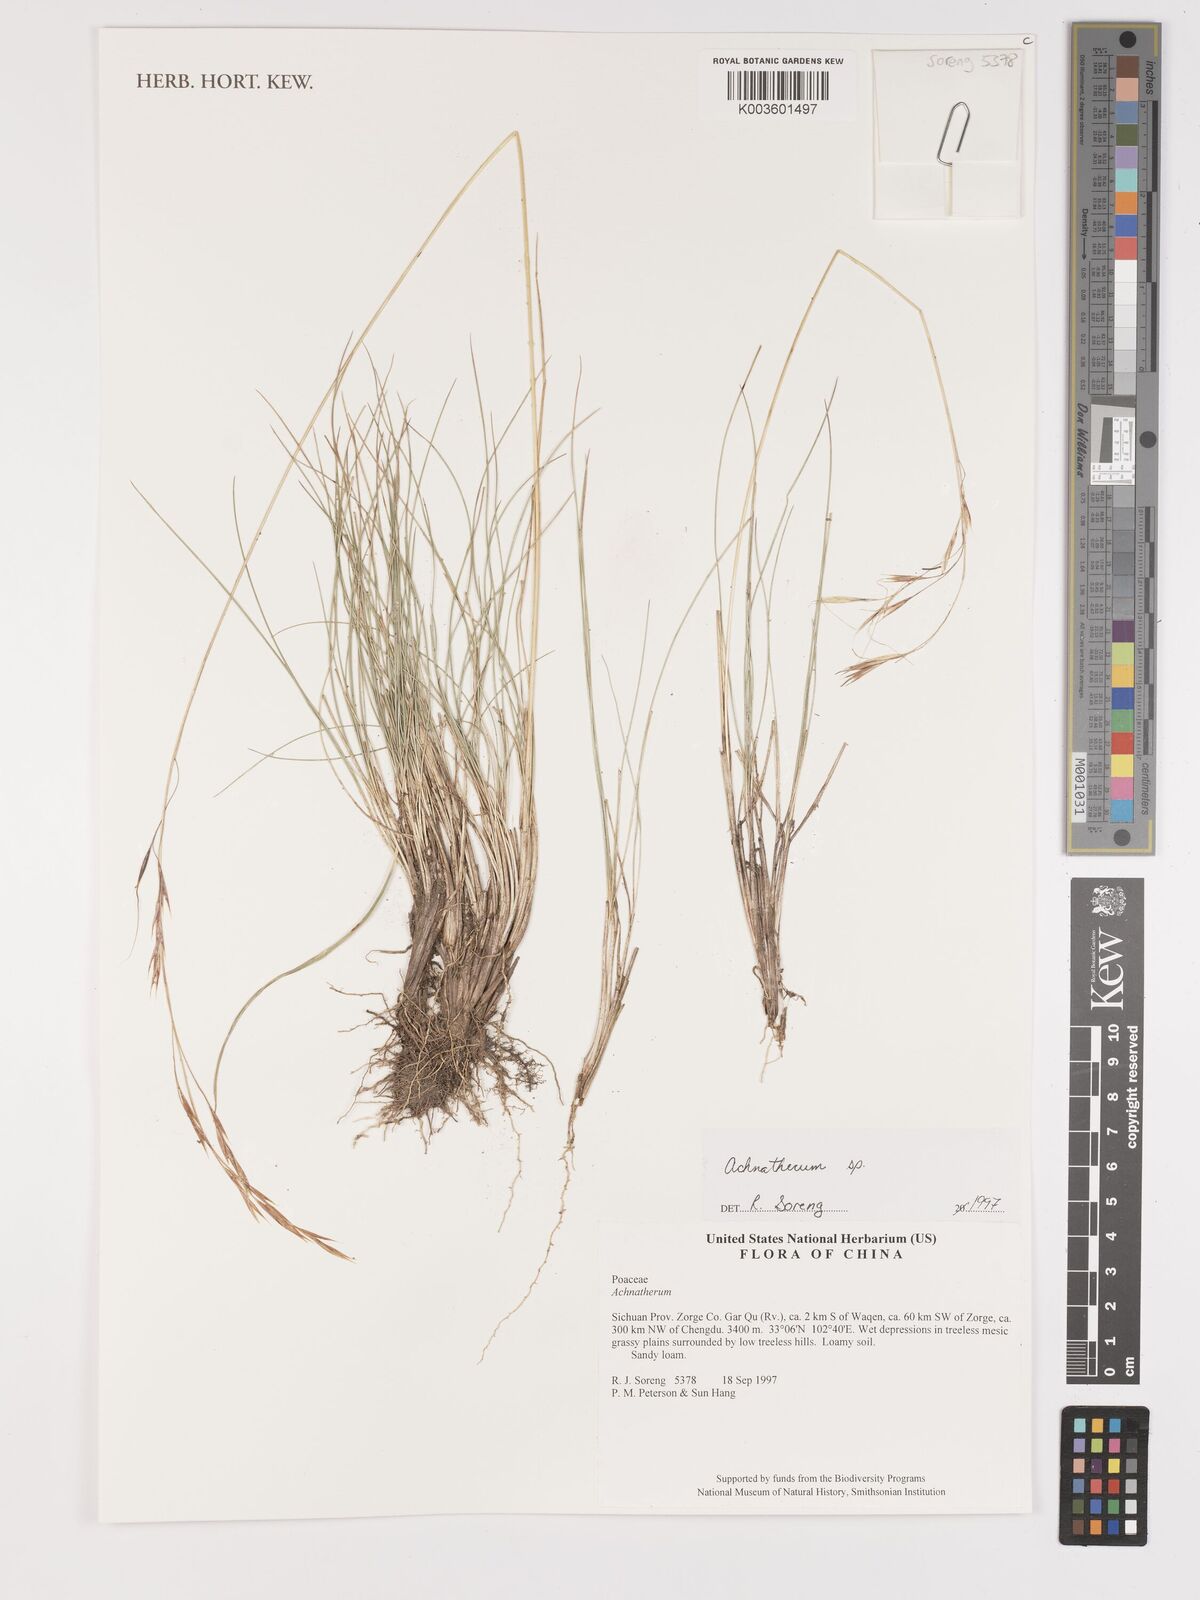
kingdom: Plantae
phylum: Tracheophyta
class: Liliopsida
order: Poales
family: Poaceae
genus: Stipa
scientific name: Stipa
